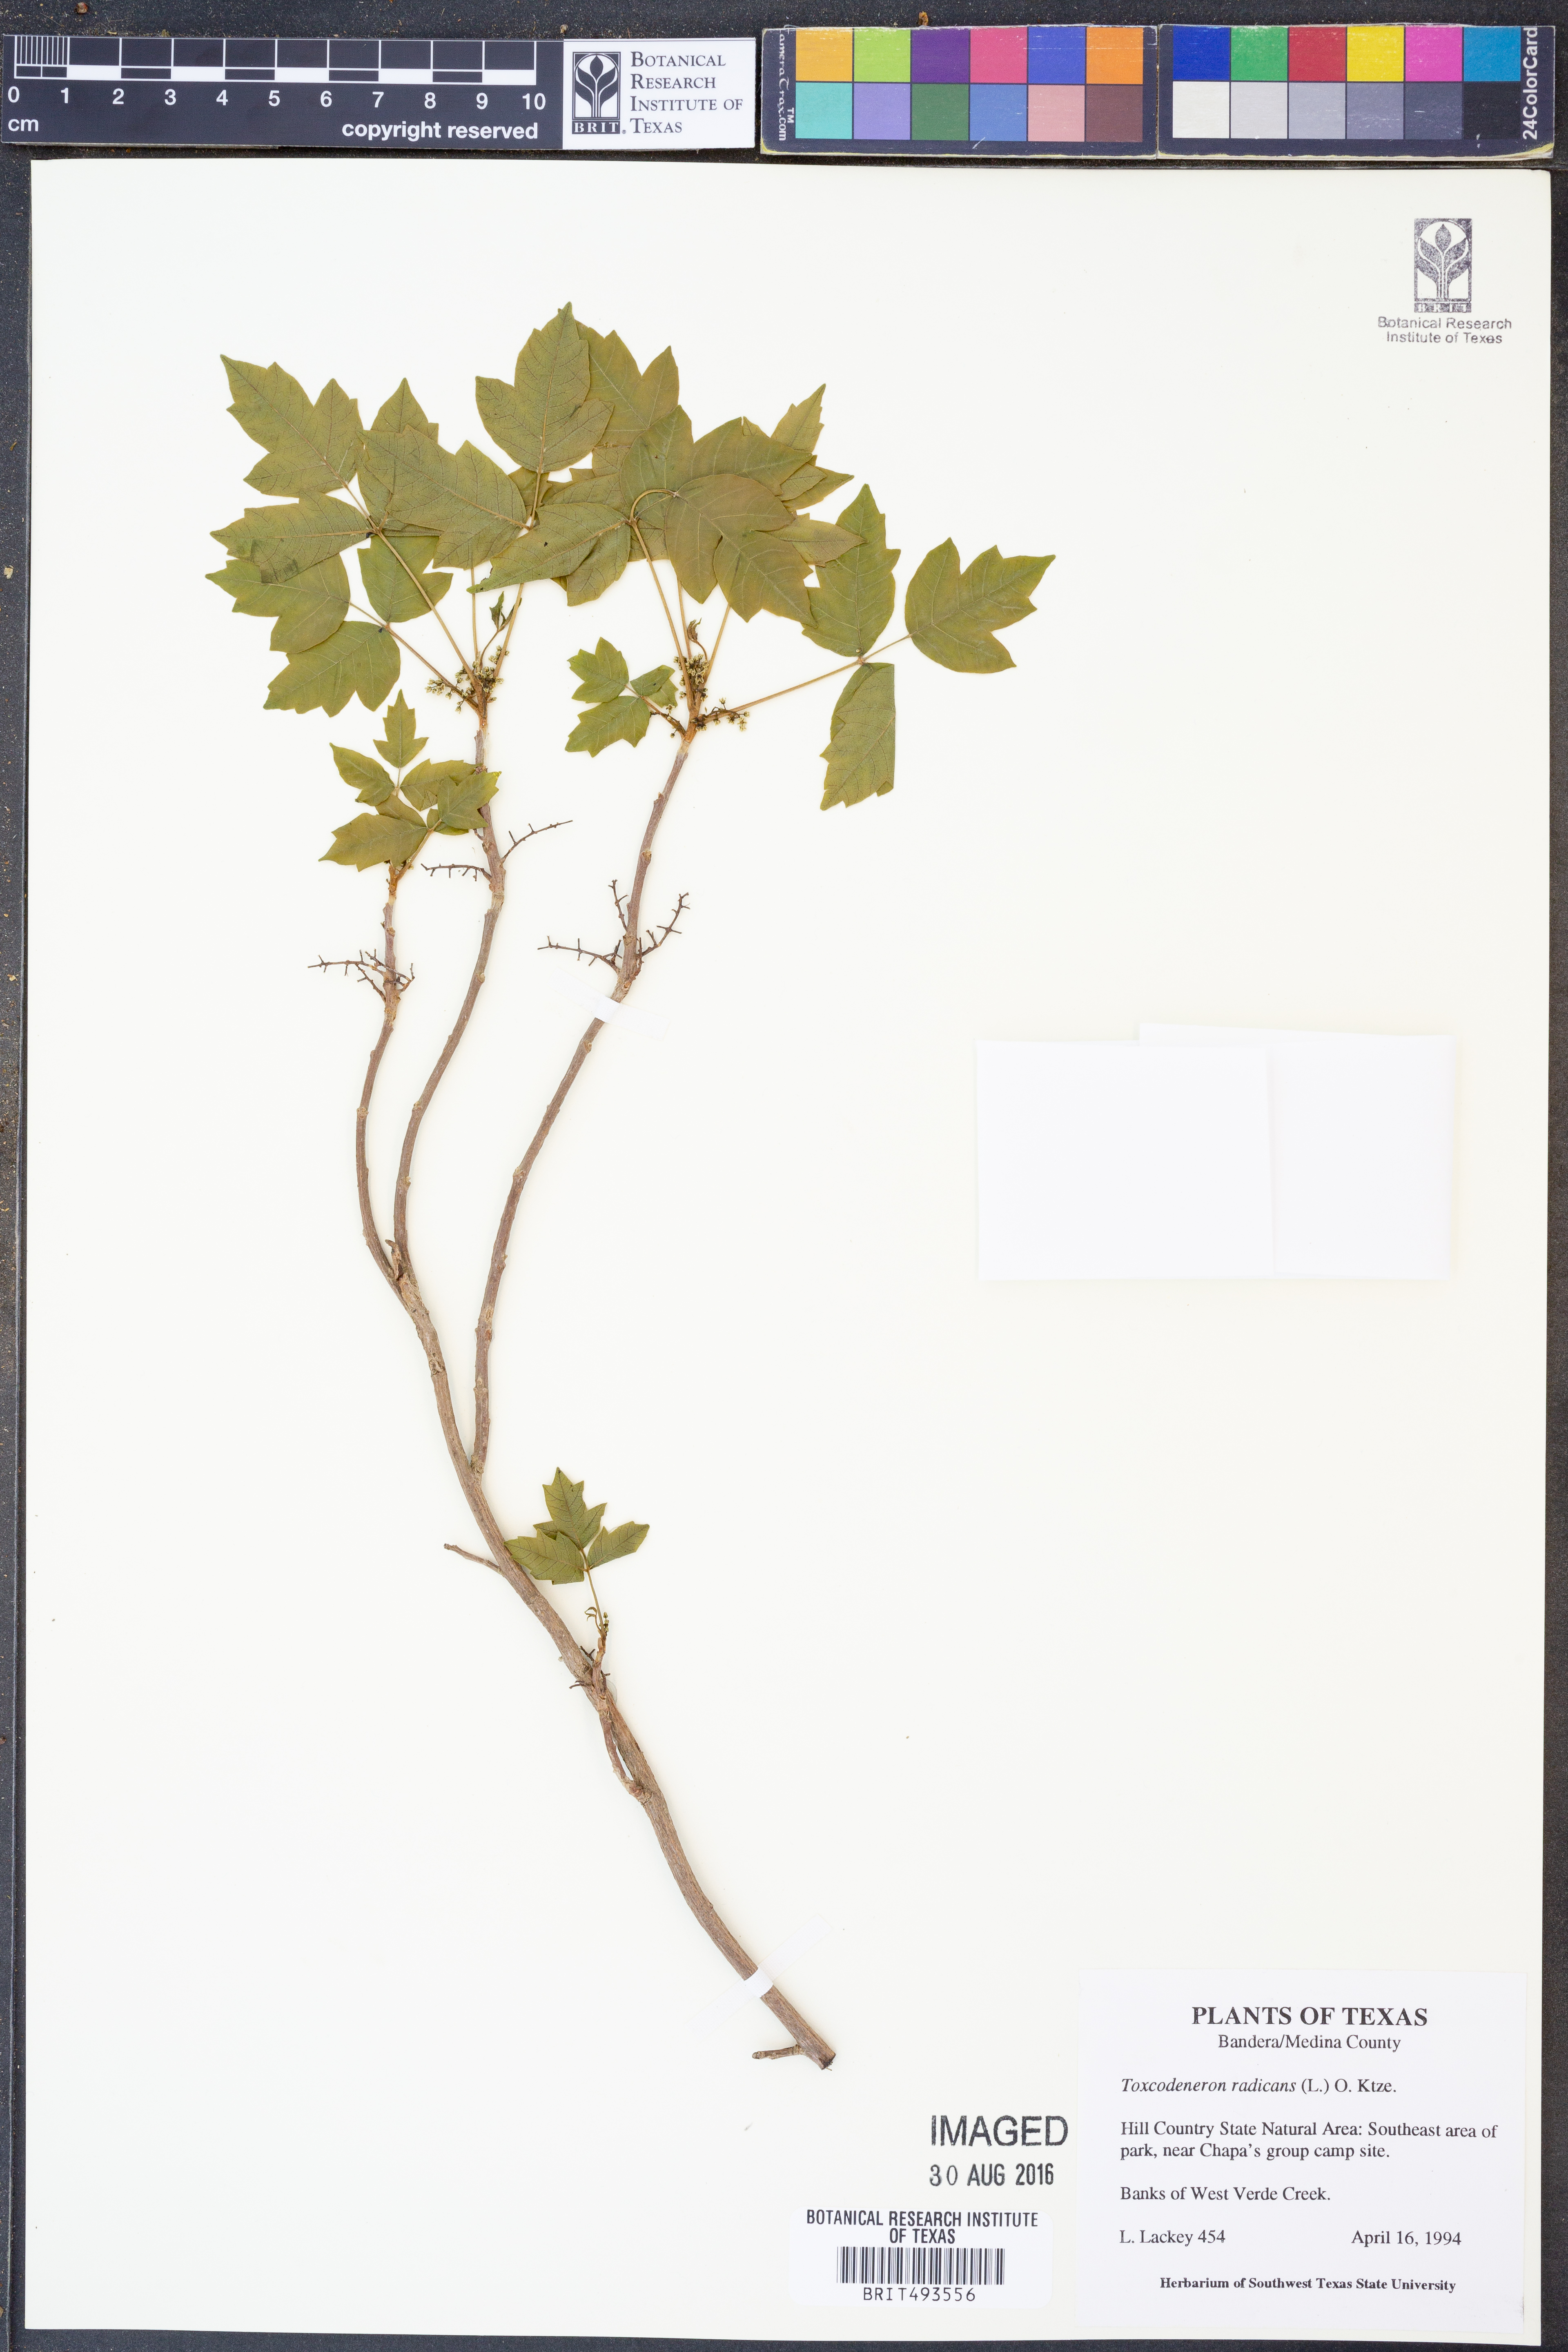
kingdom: Plantae
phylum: Tracheophyta
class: Magnoliopsida
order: Sapindales
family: Anacardiaceae
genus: Toxicodendron
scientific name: Toxicodendron radicans
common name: Poison ivy
